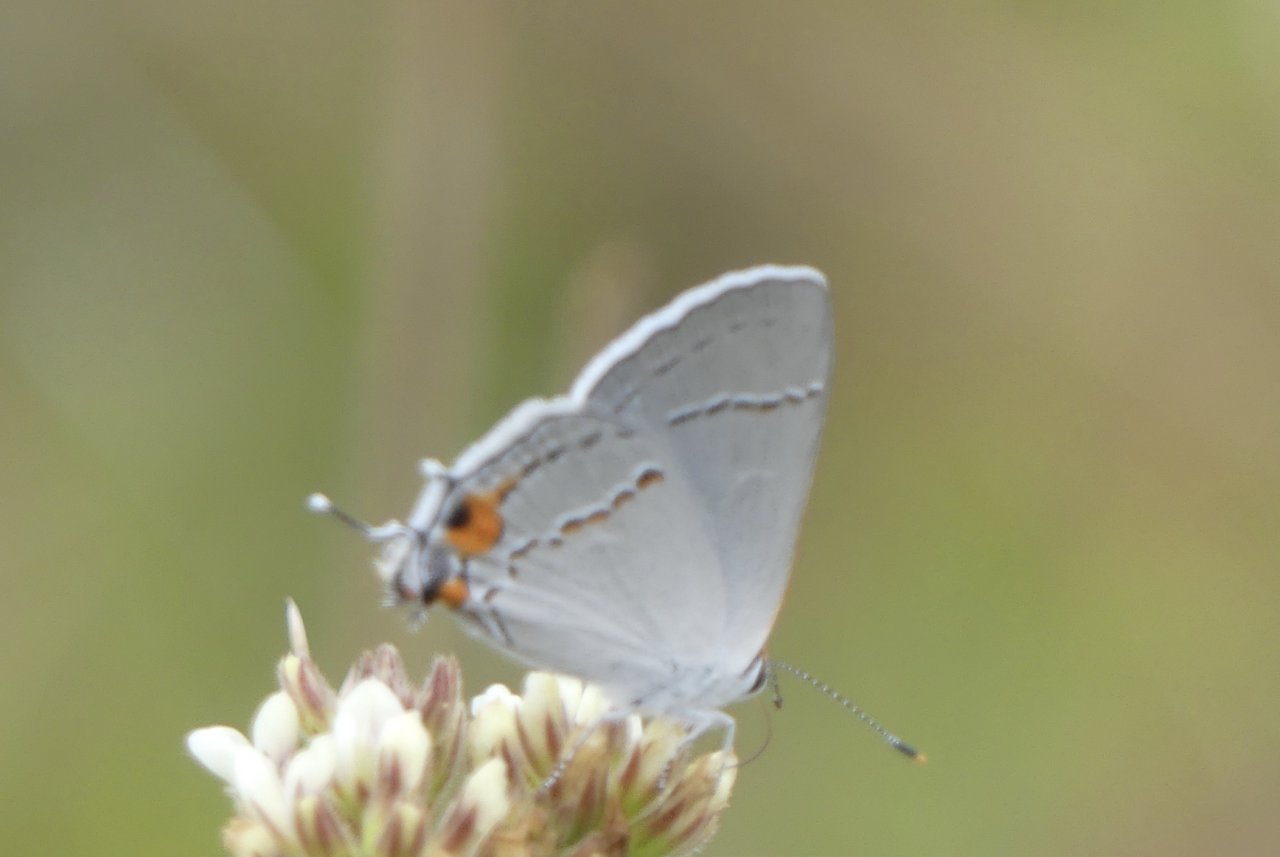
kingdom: Animalia
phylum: Arthropoda
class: Insecta
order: Lepidoptera
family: Lycaenidae
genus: Strymon
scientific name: Strymon melinus
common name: Gray Hairstreak
